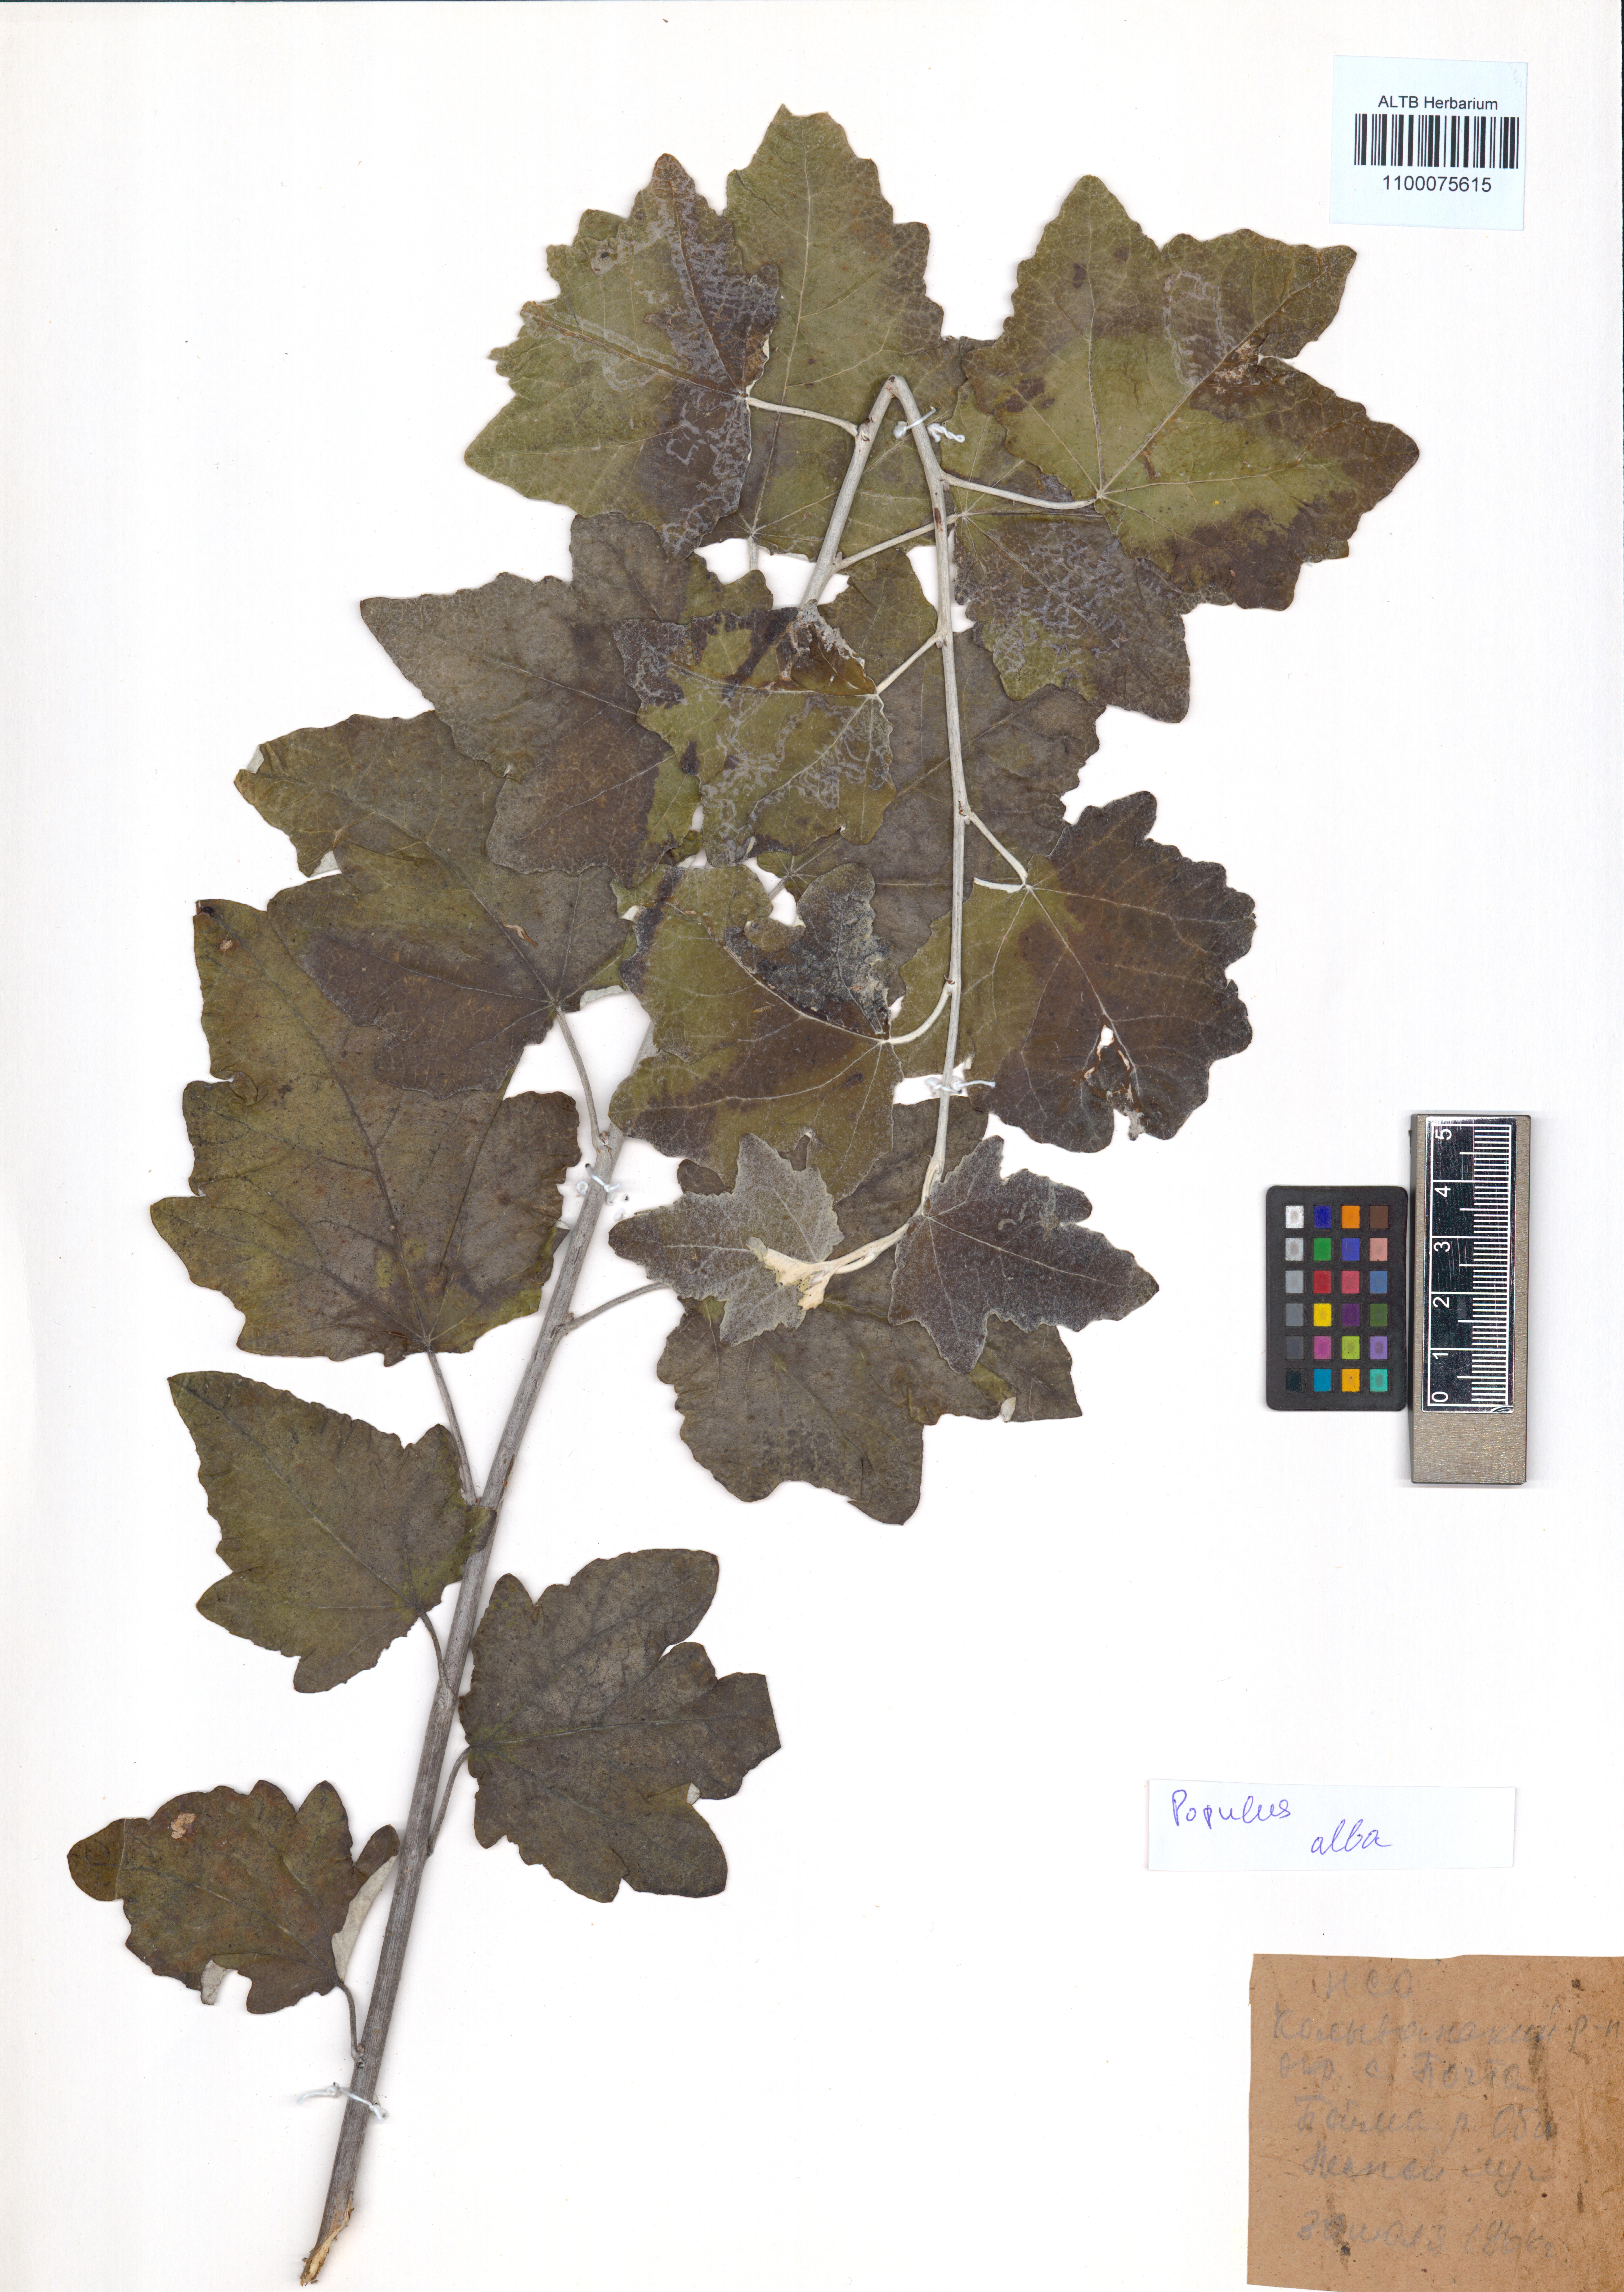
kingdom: Plantae
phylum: Tracheophyta
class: Magnoliopsida
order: Malpighiales
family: Salicaceae
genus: Populus
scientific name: Populus alba
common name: White poplar
